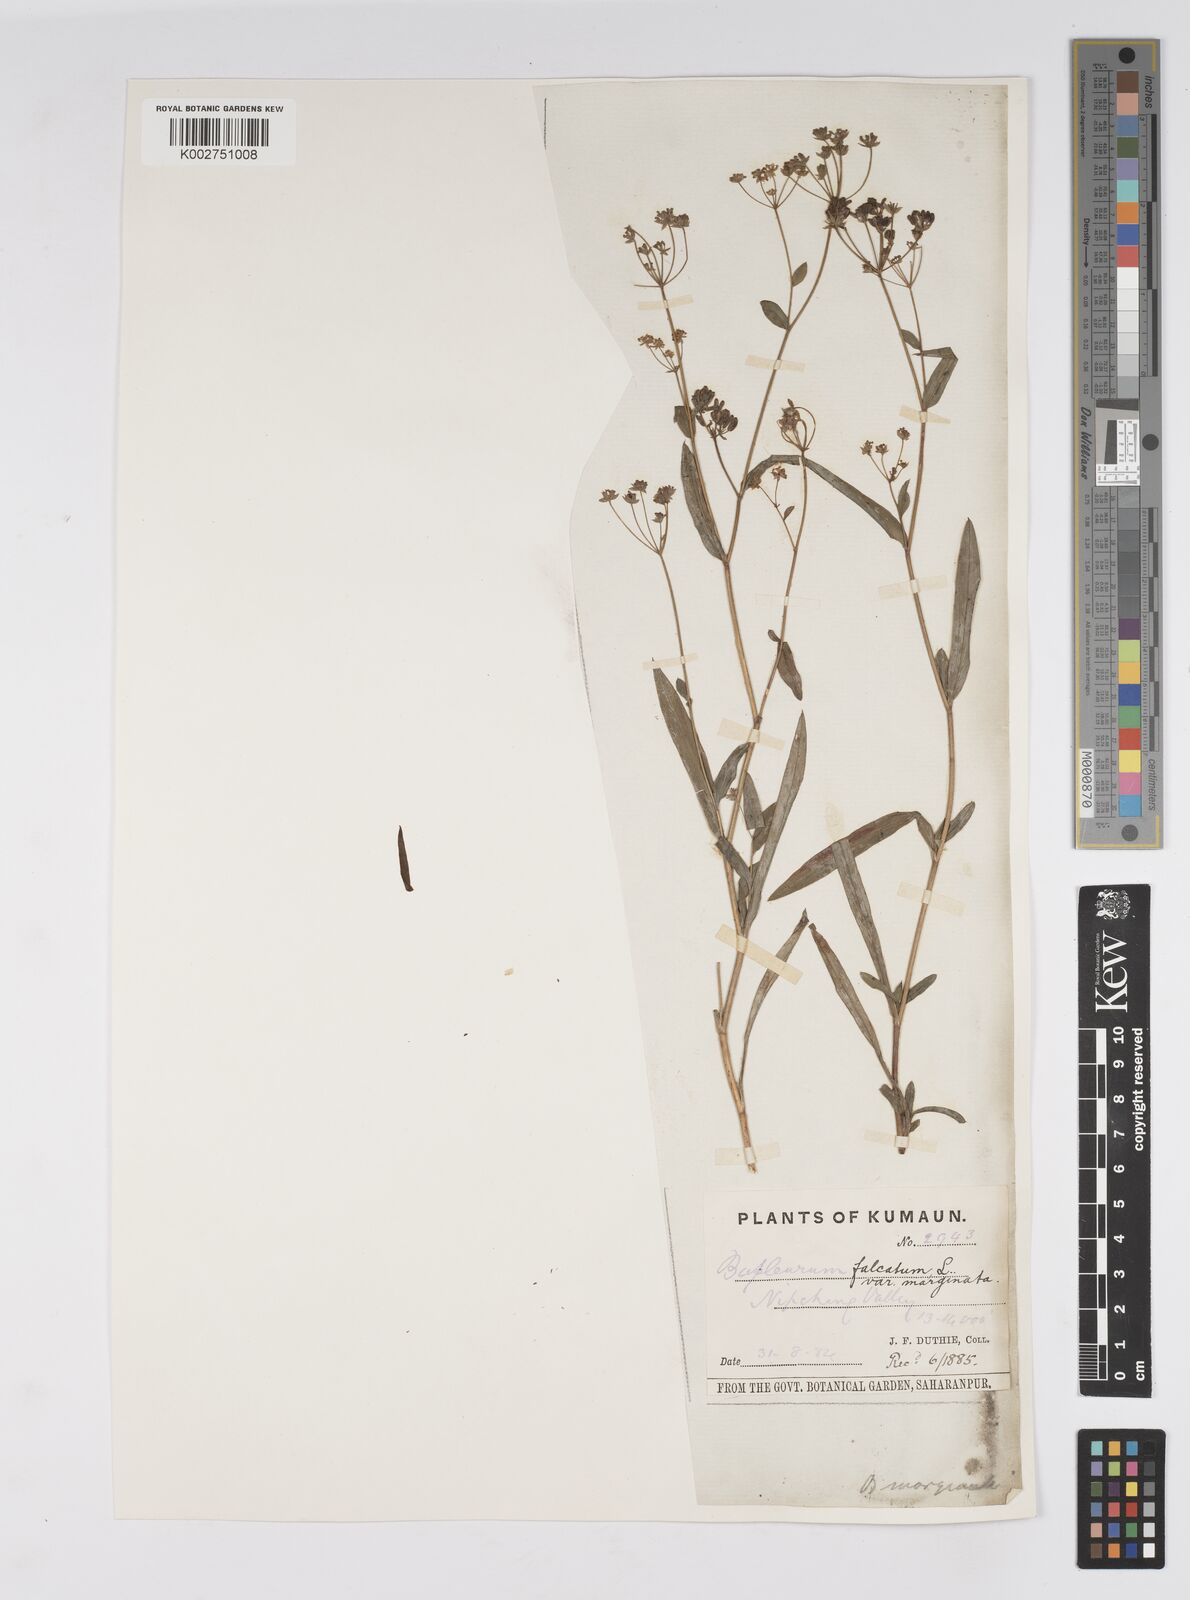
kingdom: Plantae
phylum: Tracheophyta
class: Magnoliopsida
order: Apiales
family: Apiaceae
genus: Bupleurum
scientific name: Bupleurum falcatum
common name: Sickle-leaved hare's-ear
